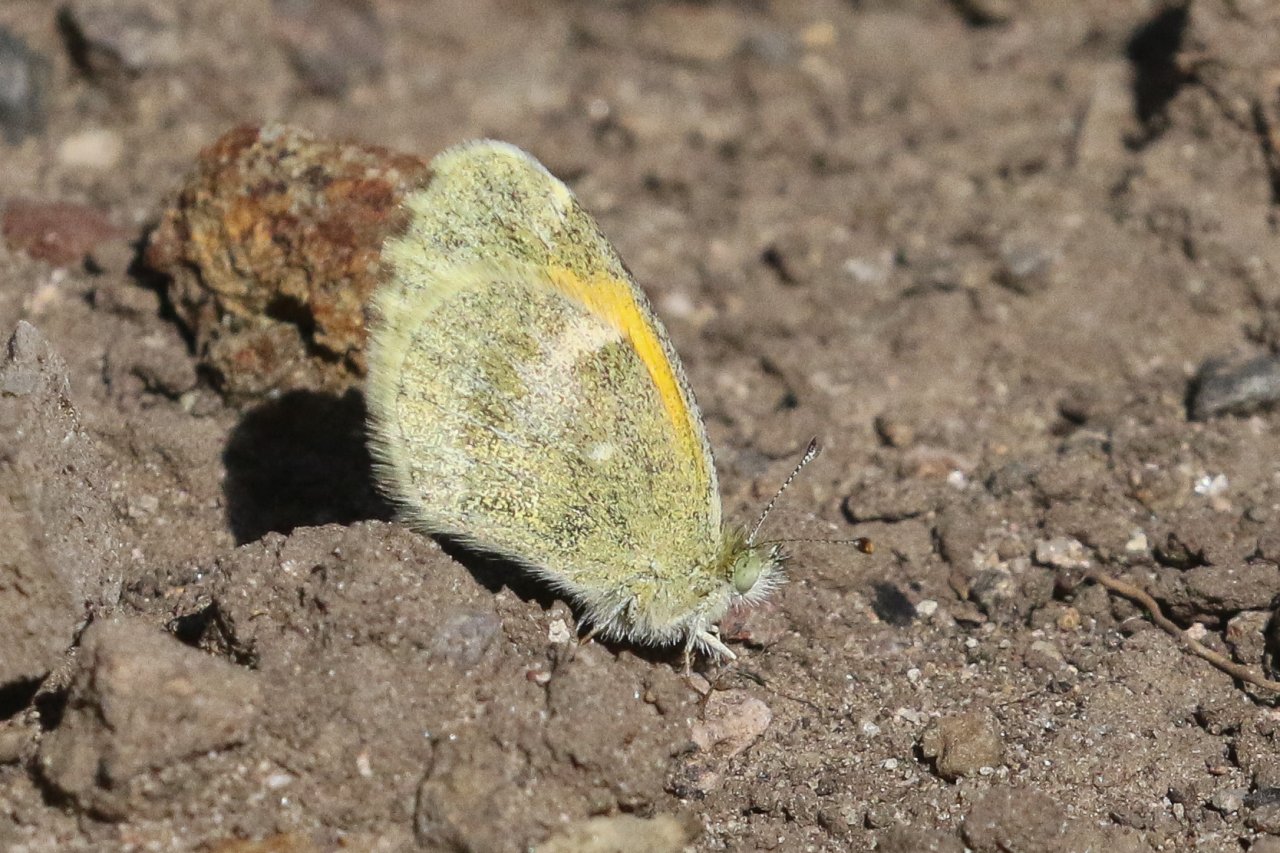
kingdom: Animalia
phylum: Arthropoda
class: Insecta
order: Lepidoptera
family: Pieridae
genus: Nathalis
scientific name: Nathalis iole
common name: Dainty Sulphur
